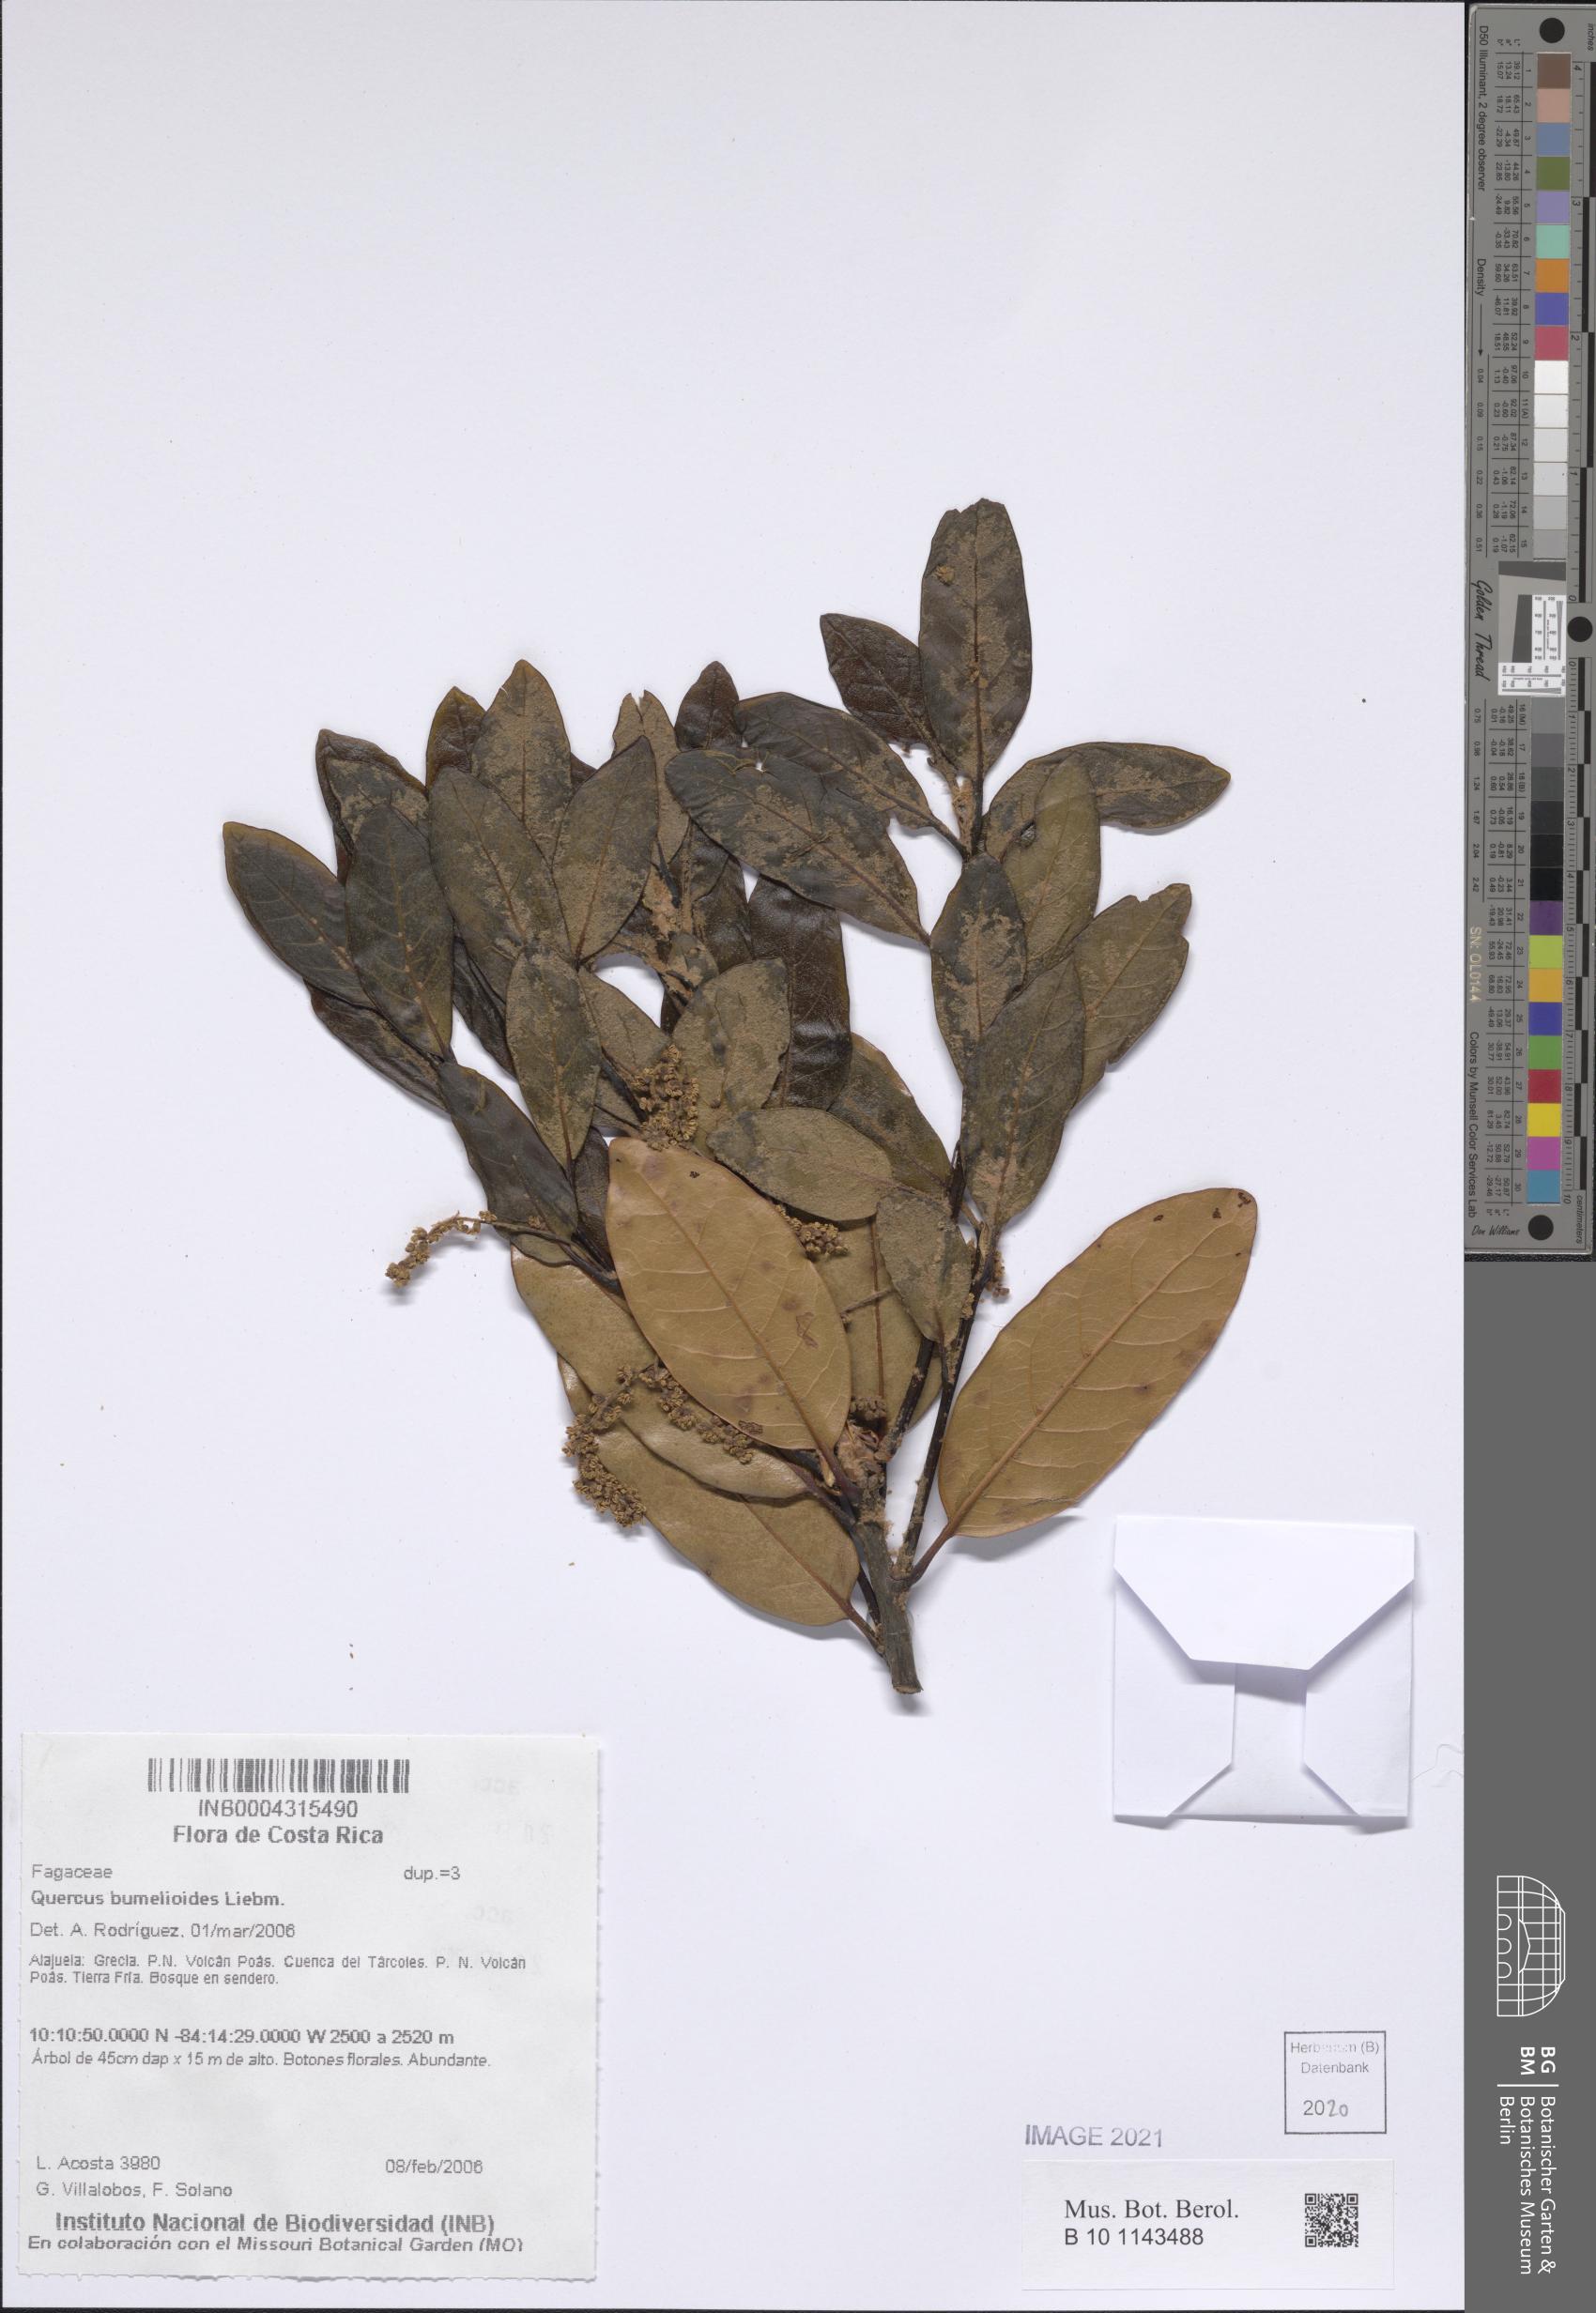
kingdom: Plantae
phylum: Tracheophyta
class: Magnoliopsida
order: Fagales
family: Fagaceae
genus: Quercus
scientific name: Quercus sapotifolia
